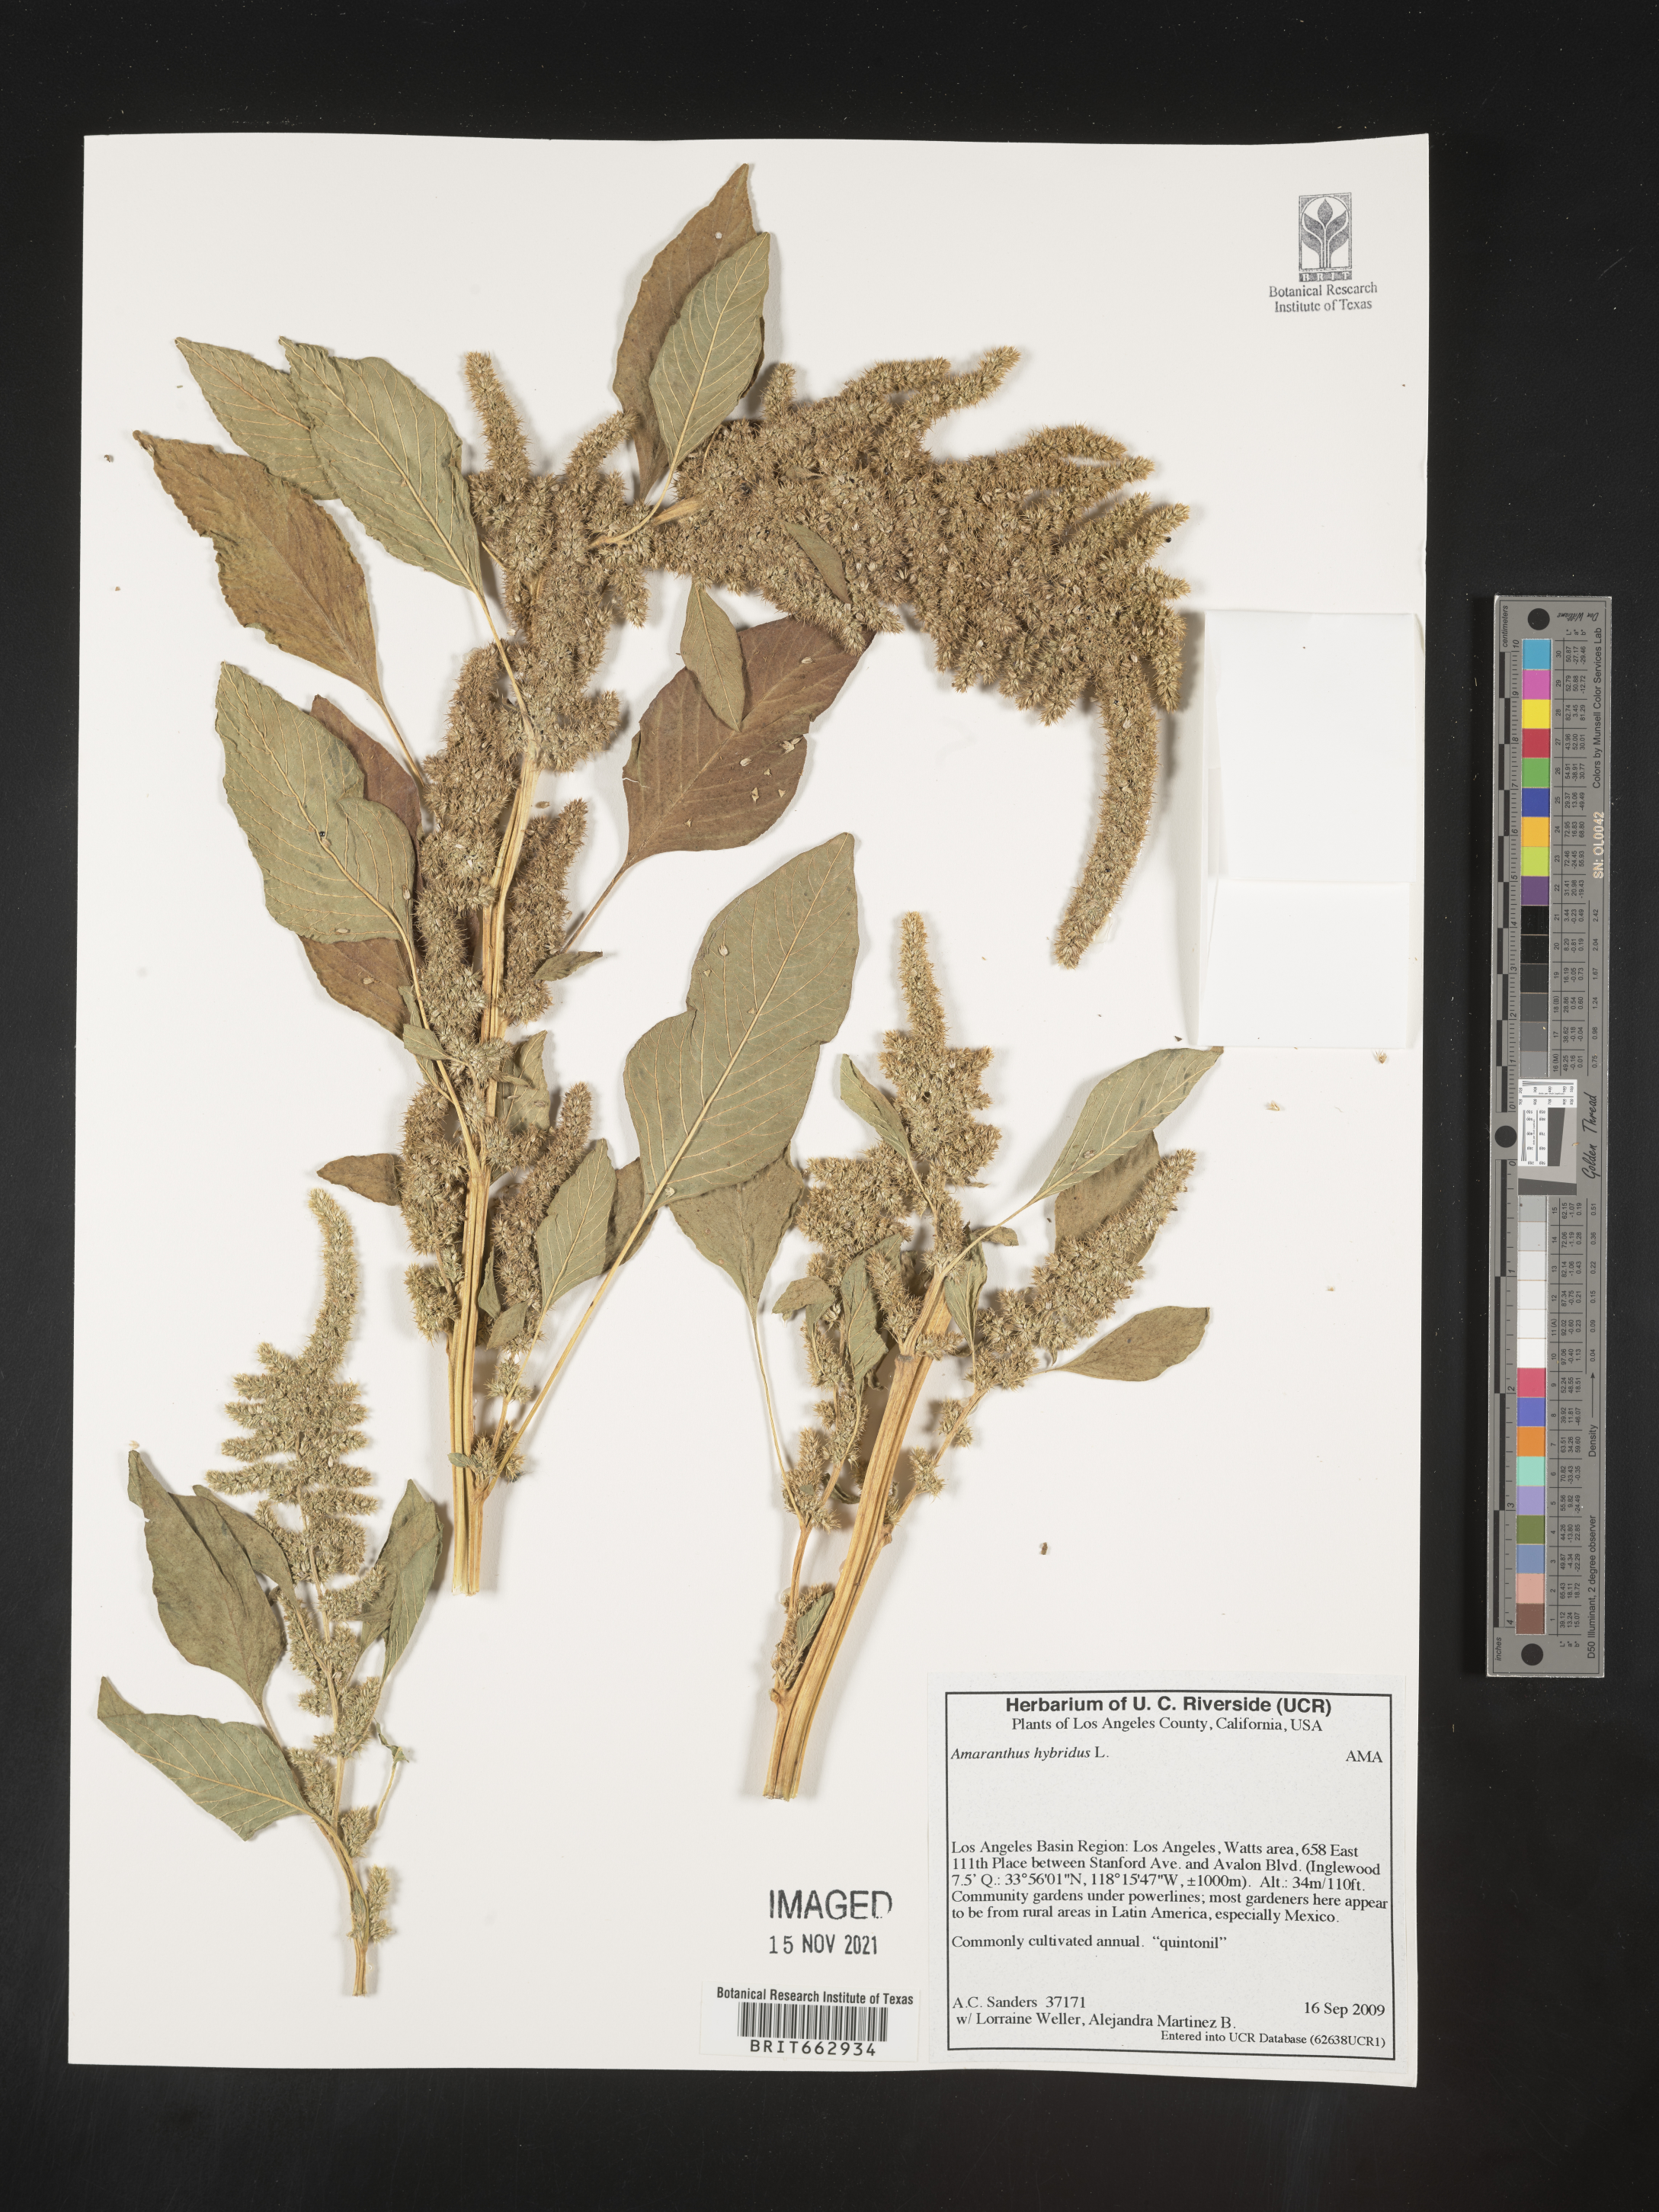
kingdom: Plantae
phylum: Tracheophyta
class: Magnoliopsida
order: Caryophyllales
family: Amaranthaceae
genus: Amaranthus
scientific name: Amaranthus hybridus
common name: Green amaranth
